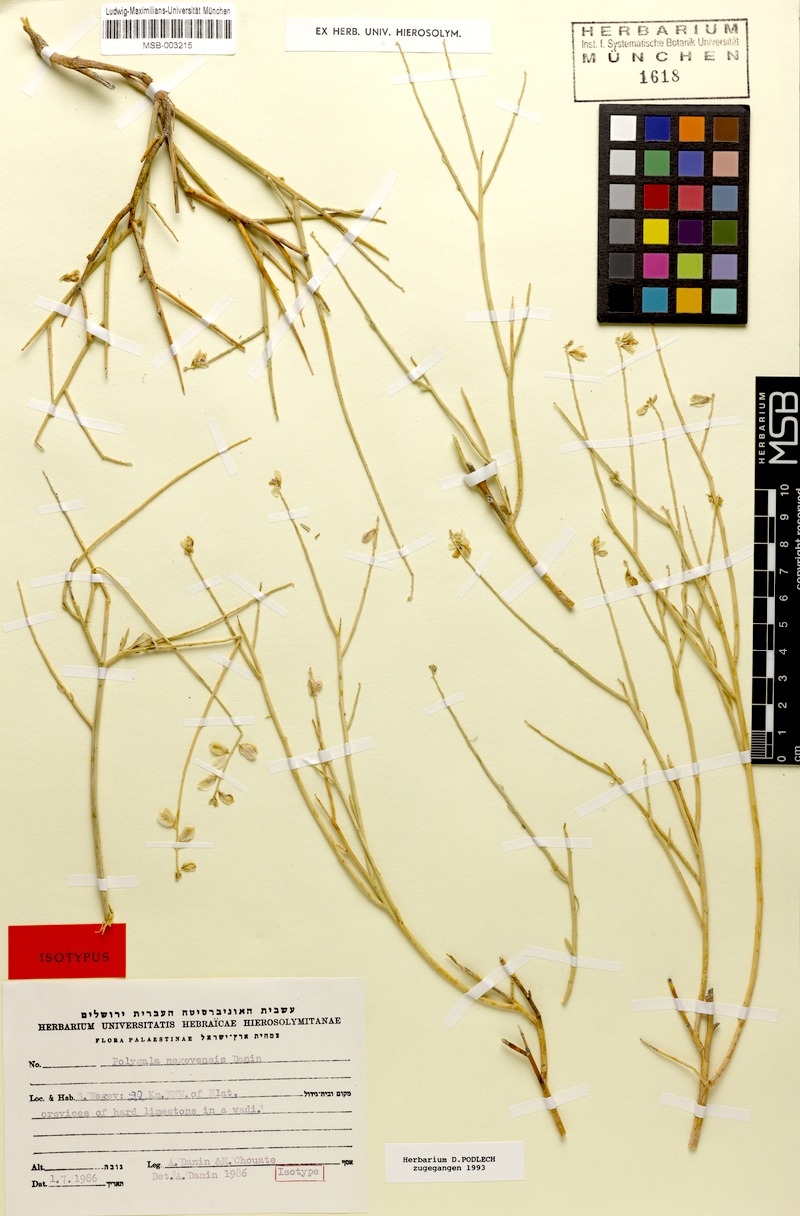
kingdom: Plantae
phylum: Tracheophyta
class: Magnoliopsida
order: Fabales
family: Polygalaceae
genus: Polygala
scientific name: Polygala sinaica
